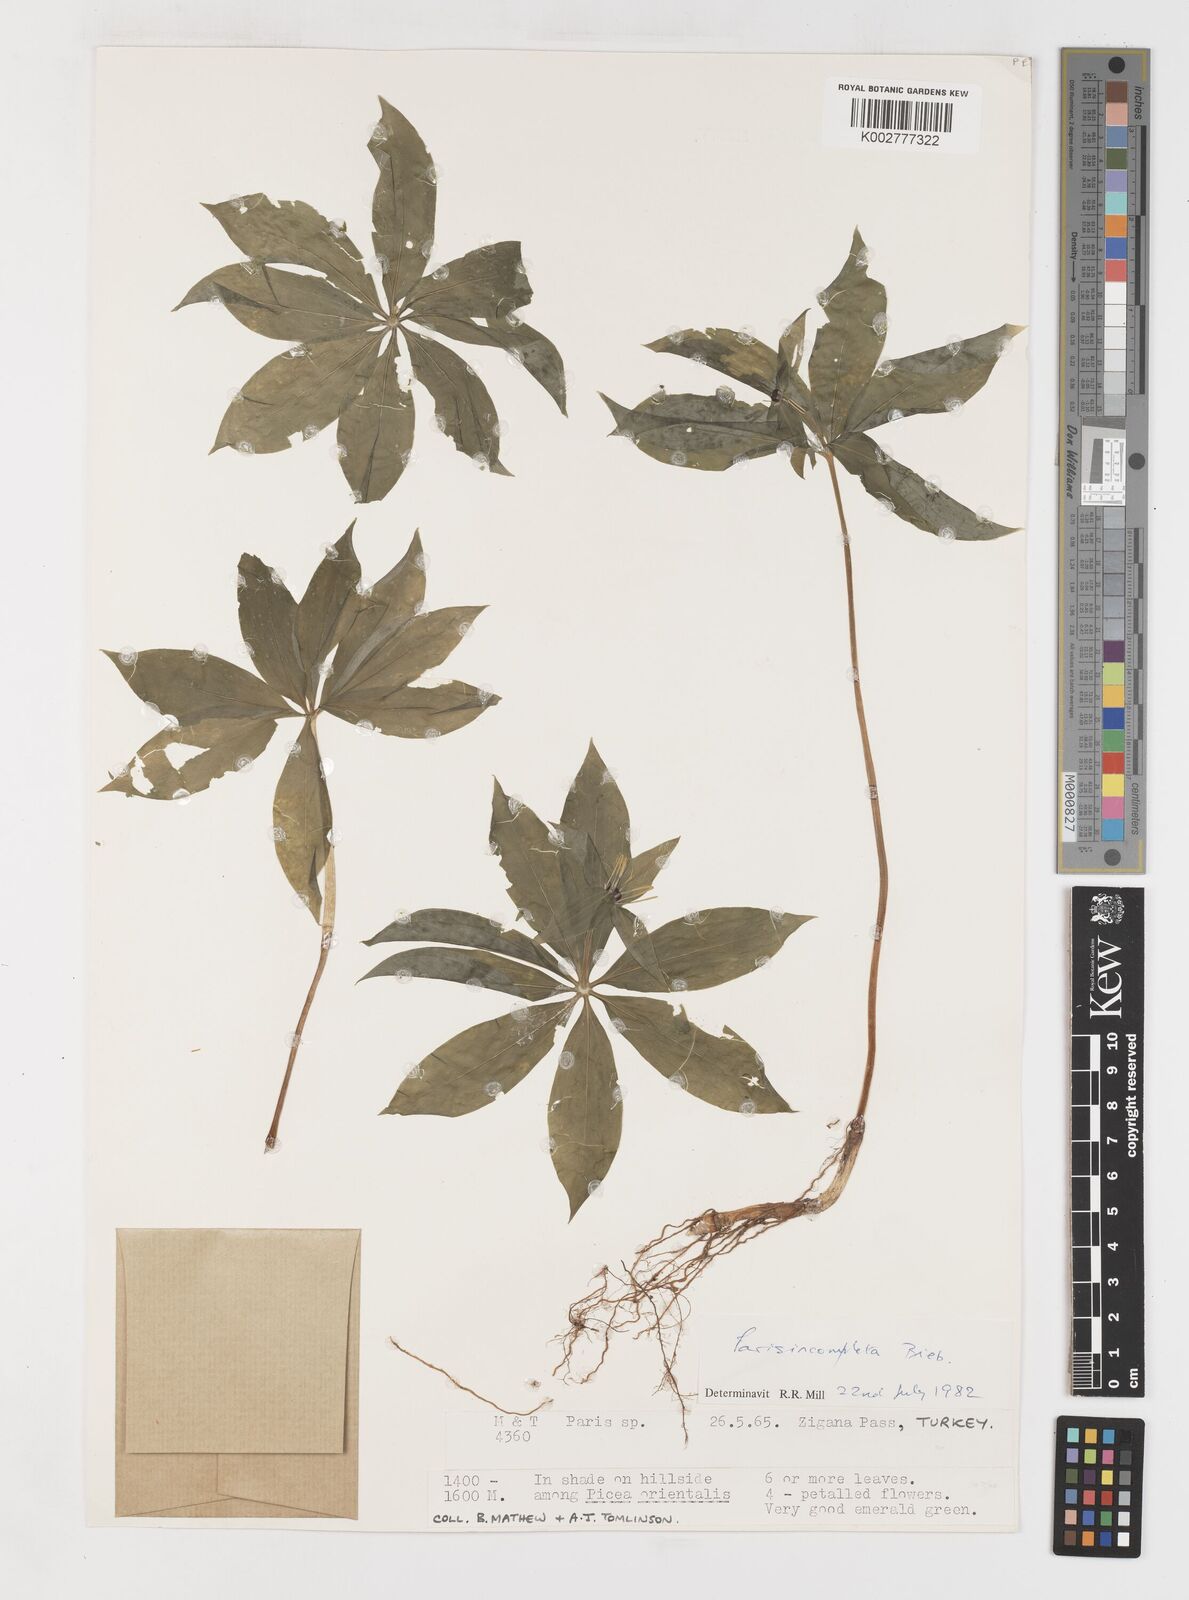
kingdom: Plantae
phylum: Tracheophyta
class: Liliopsida
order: Liliales
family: Melanthiaceae
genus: Paris
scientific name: Paris incompleta
